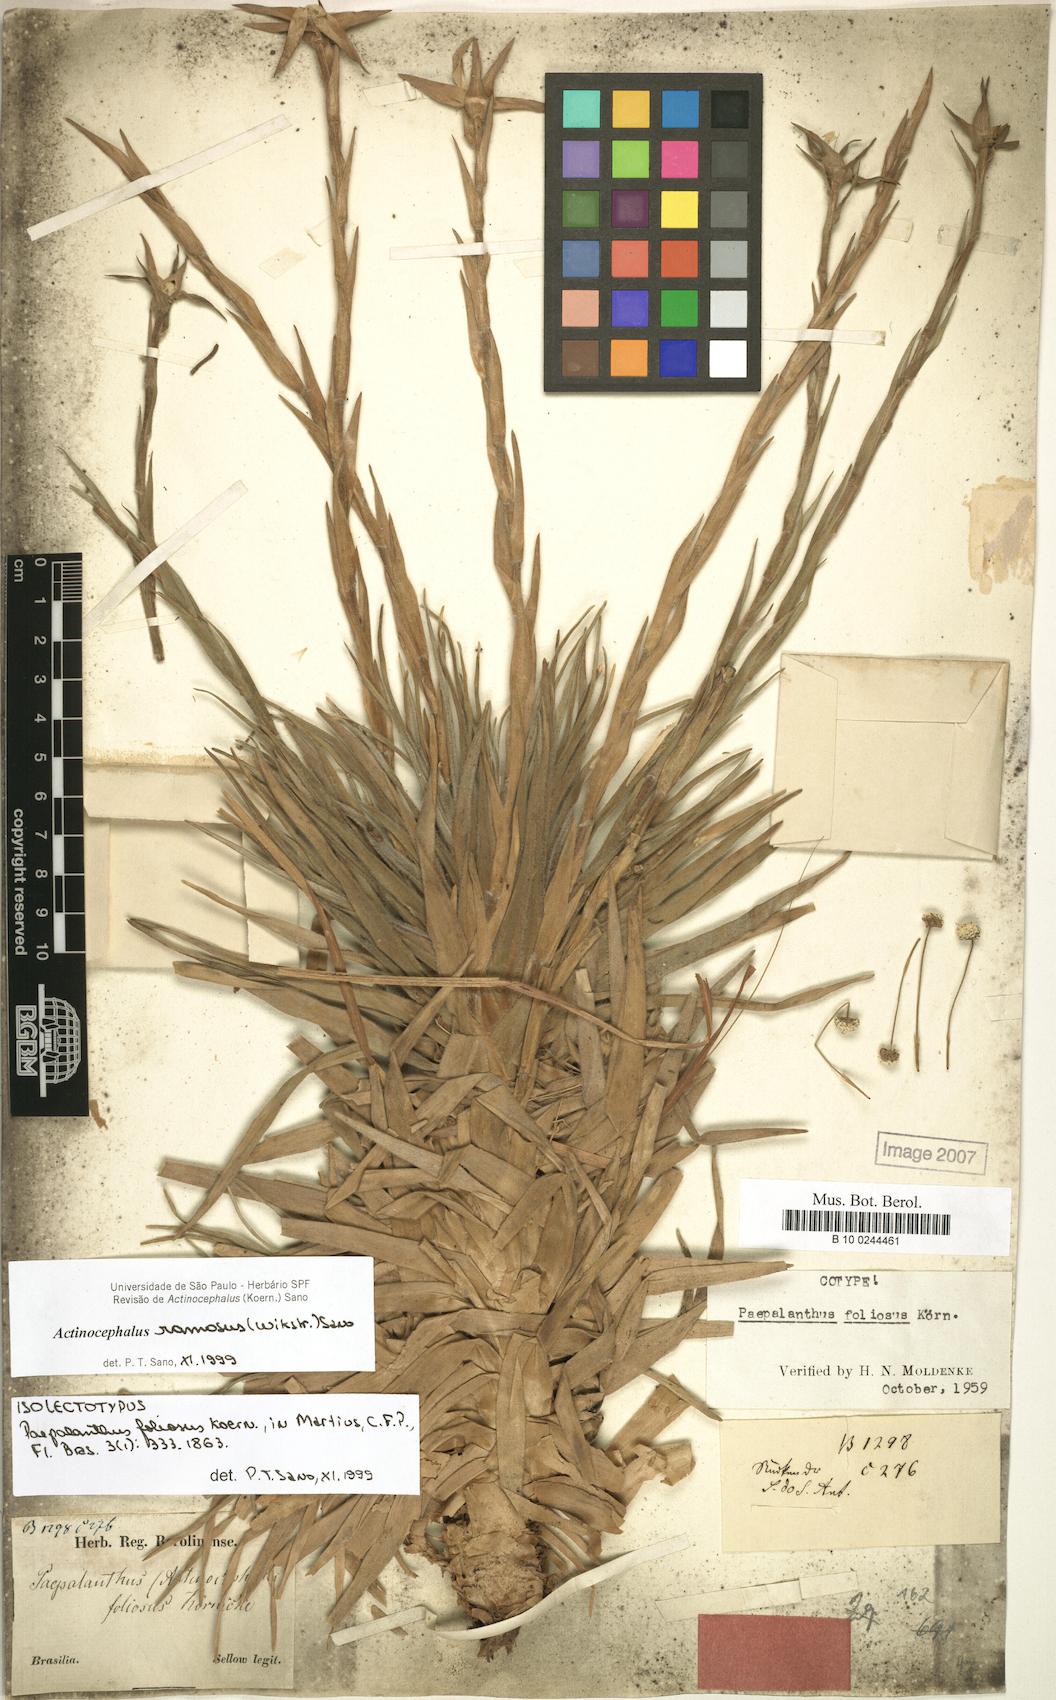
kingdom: Plantae
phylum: Tracheophyta
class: Liliopsida
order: Poales
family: Eriocaulaceae
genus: Paepalanthus
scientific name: Paepalanthus ramosus
